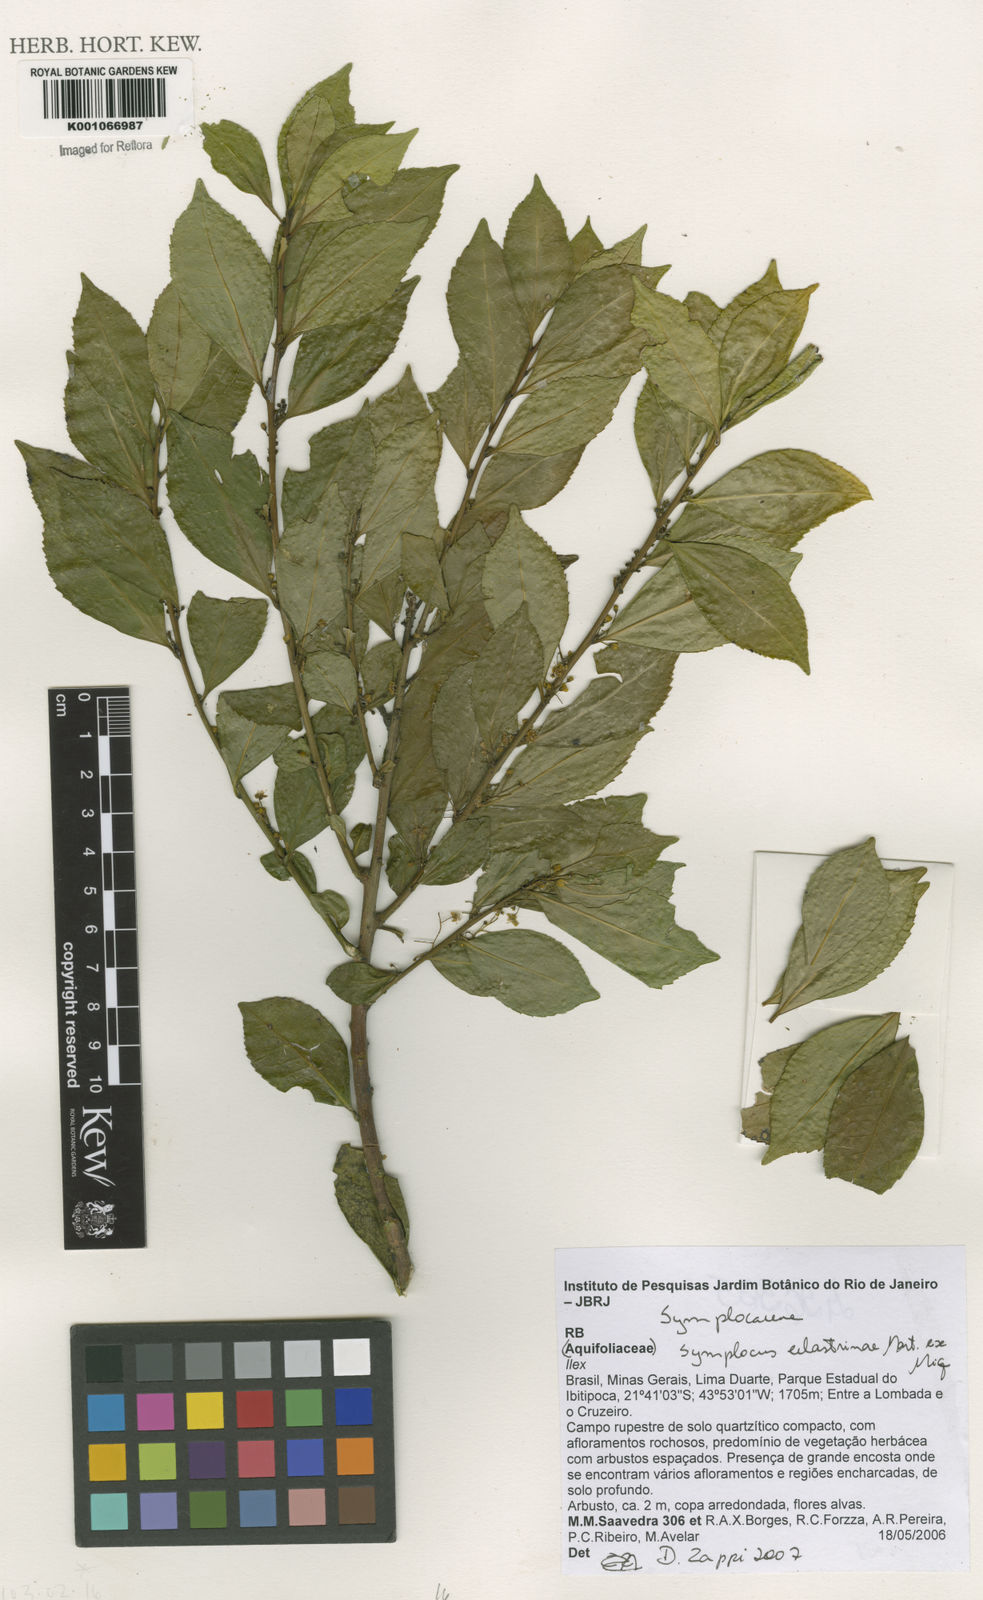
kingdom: Plantae
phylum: Tracheophyta
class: Magnoliopsida
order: Ericales
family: Symplocaceae
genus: Symplocos
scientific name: Symplocos
